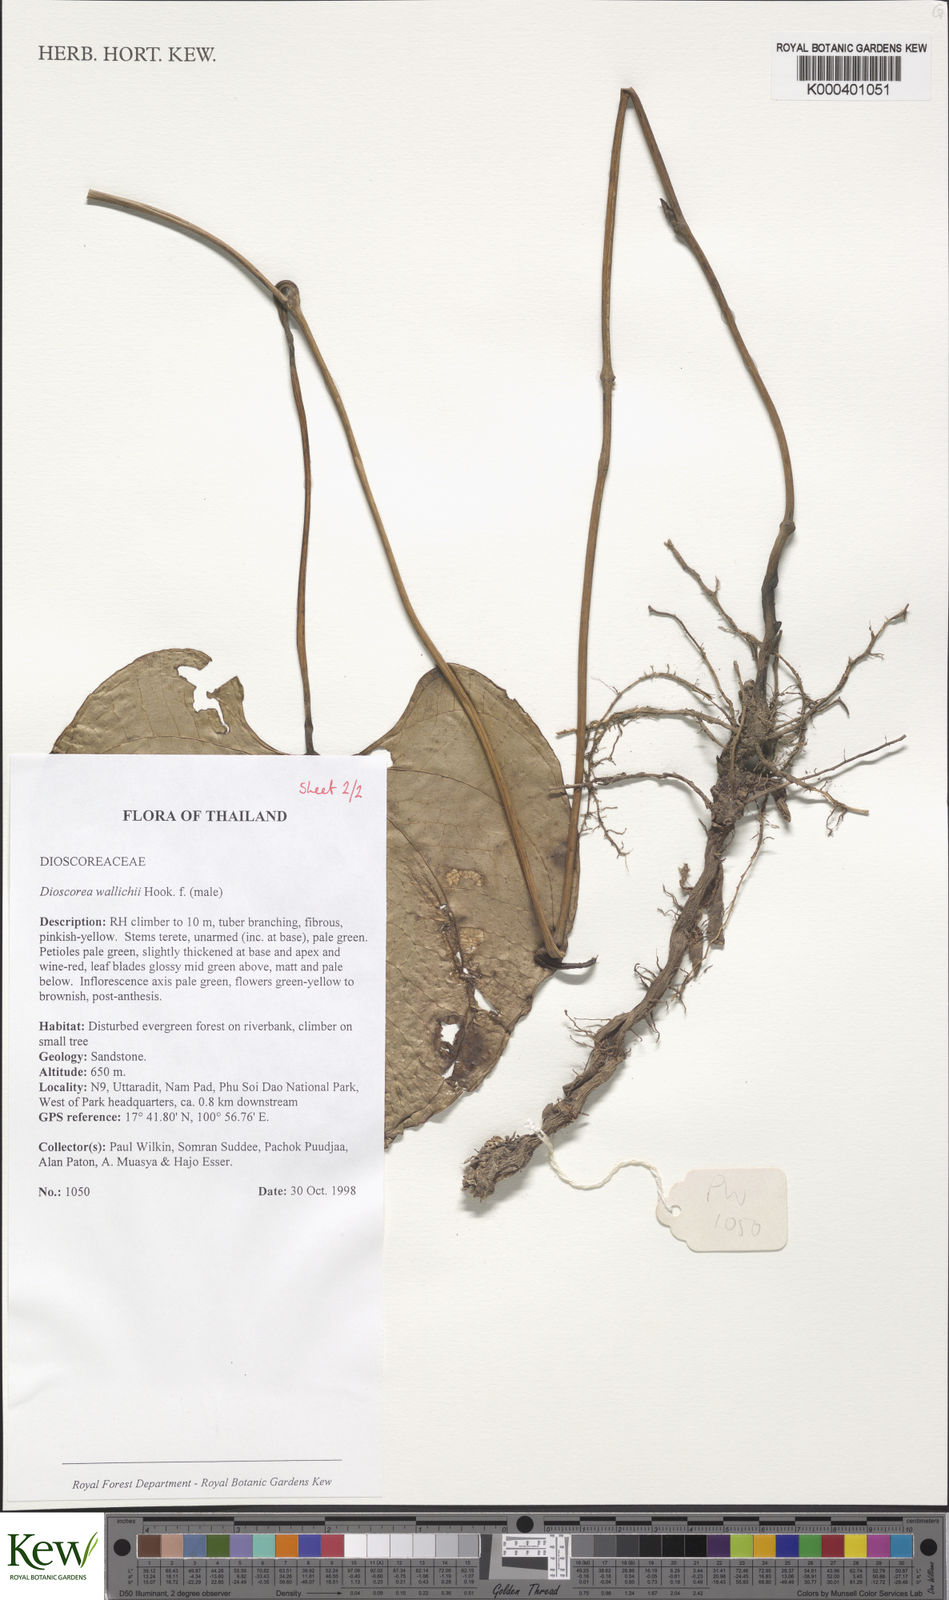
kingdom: Plantae
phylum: Tracheophyta
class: Liliopsida
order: Dioscoreales
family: Dioscoreaceae
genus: Dioscorea
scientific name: Dioscorea wallichii
